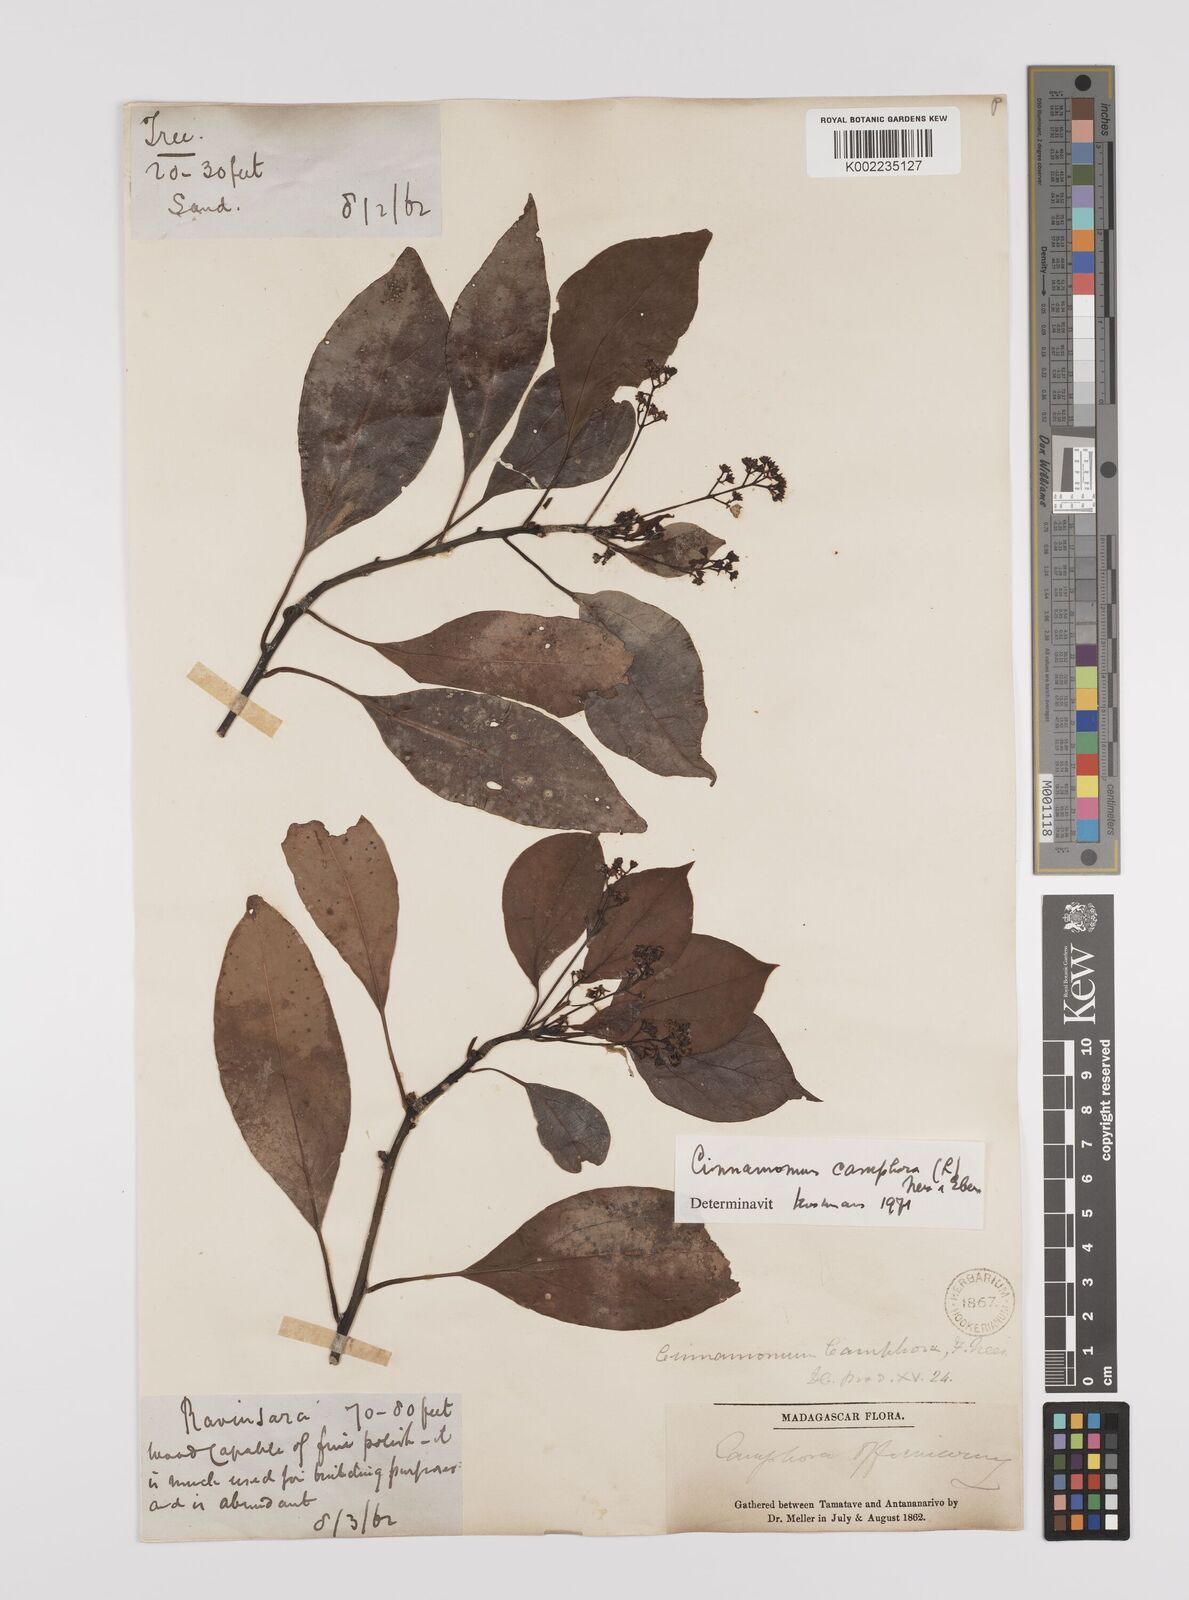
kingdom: Plantae
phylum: Tracheophyta
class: Magnoliopsida
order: Laurales
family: Lauraceae
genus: Cinnamomum
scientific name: Cinnamomum camphora
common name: Camphortree
